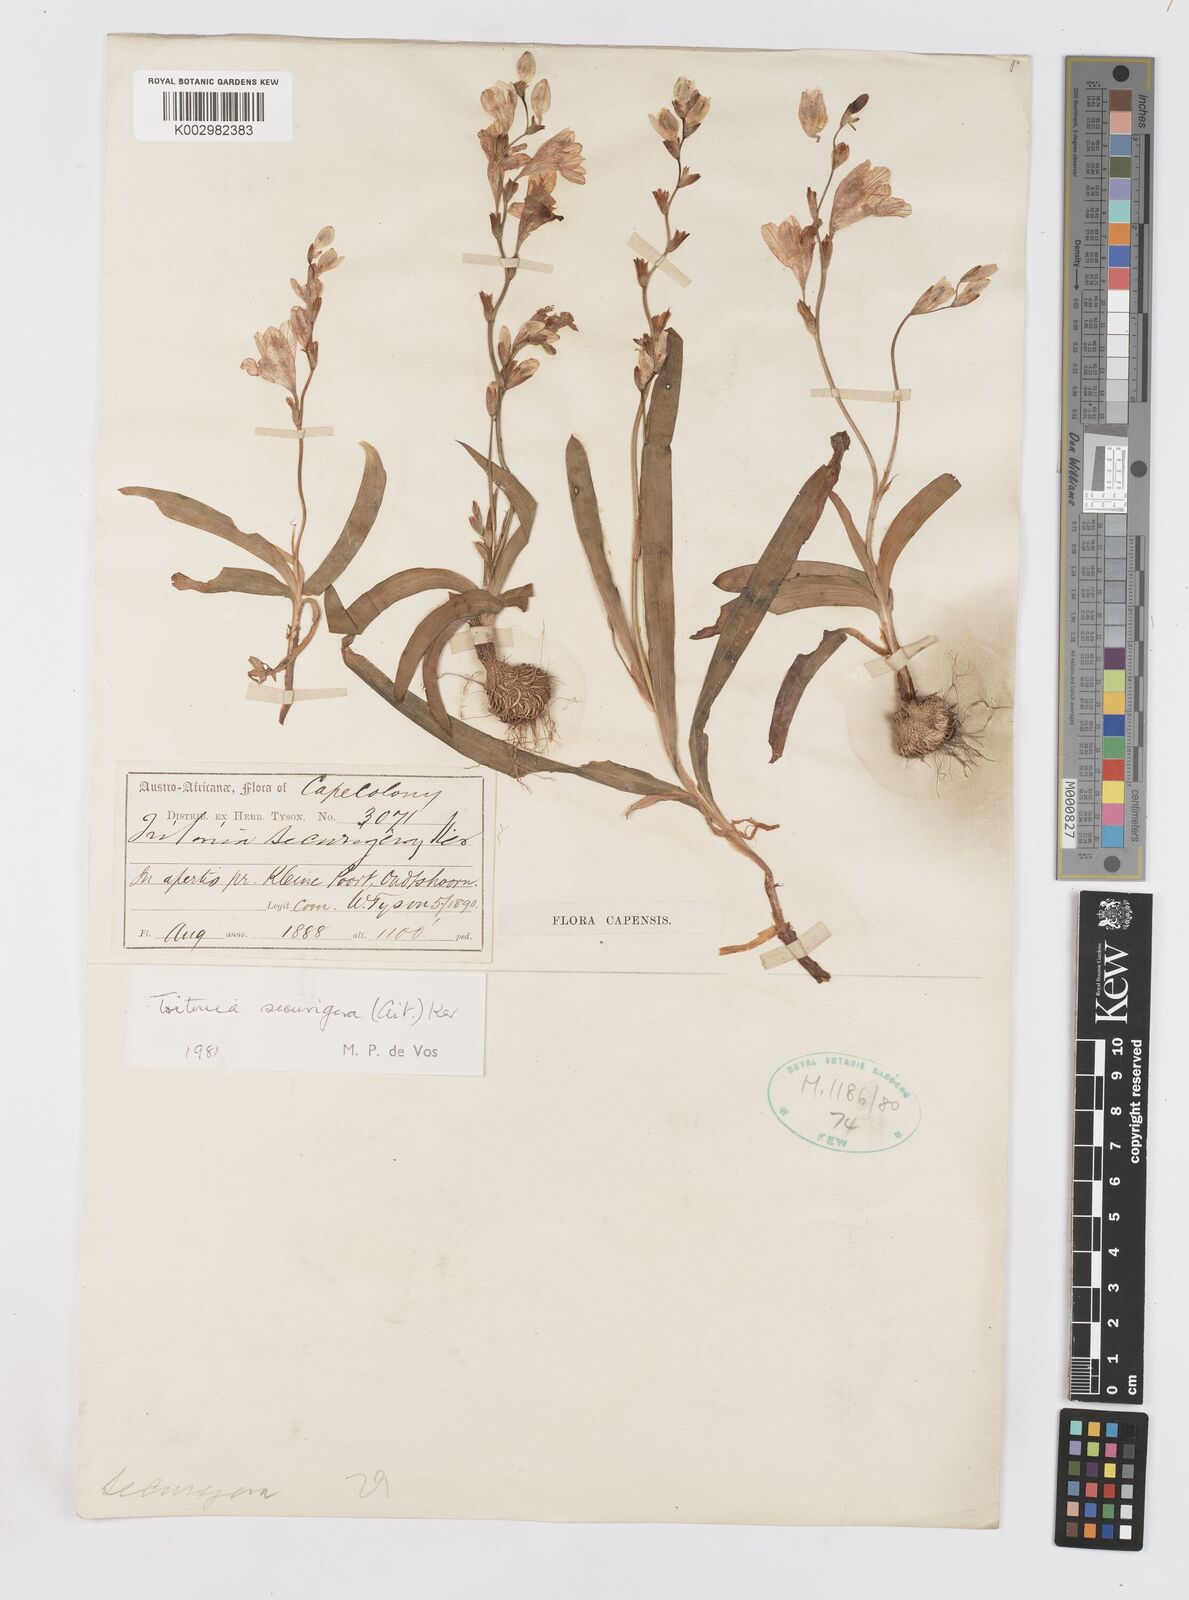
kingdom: Plantae
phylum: Tracheophyta
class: Liliopsida
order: Asparagales
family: Iridaceae
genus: Tritonia
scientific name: Tritonia securigera
